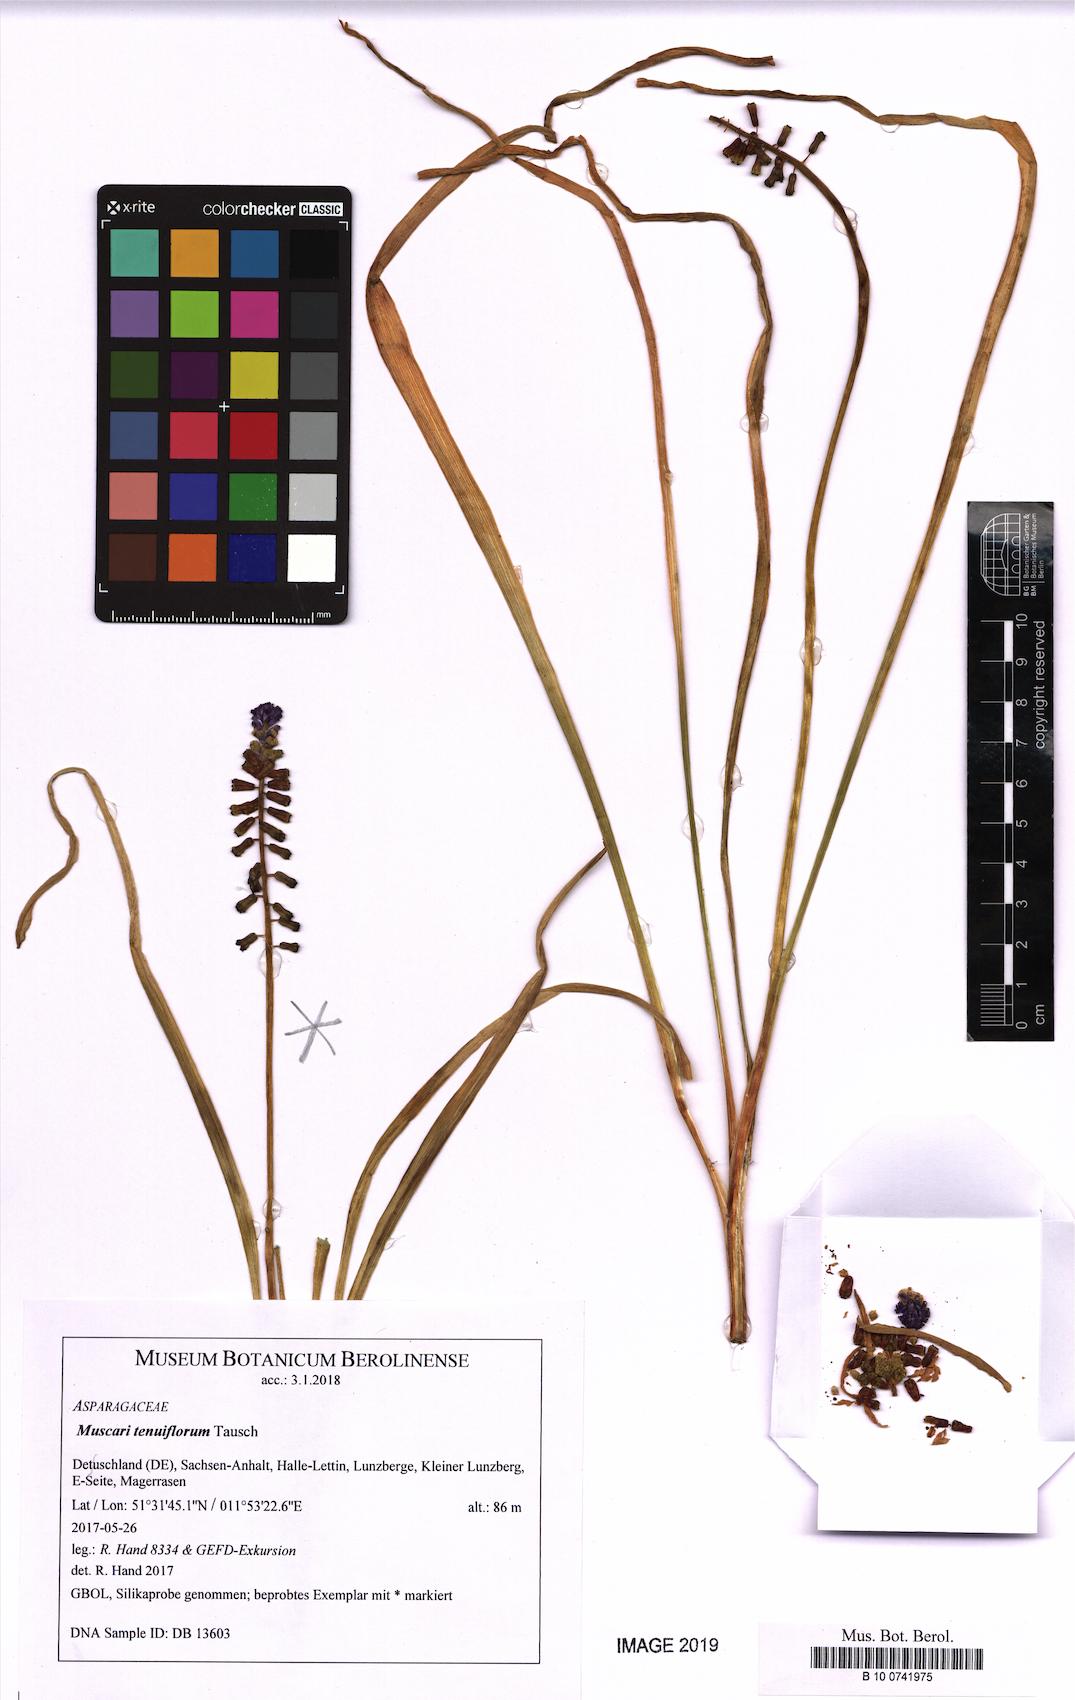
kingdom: Plantae
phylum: Tracheophyta
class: Liliopsida
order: Asparagales
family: Asparagaceae
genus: Muscari
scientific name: Muscari tenuiflorum
